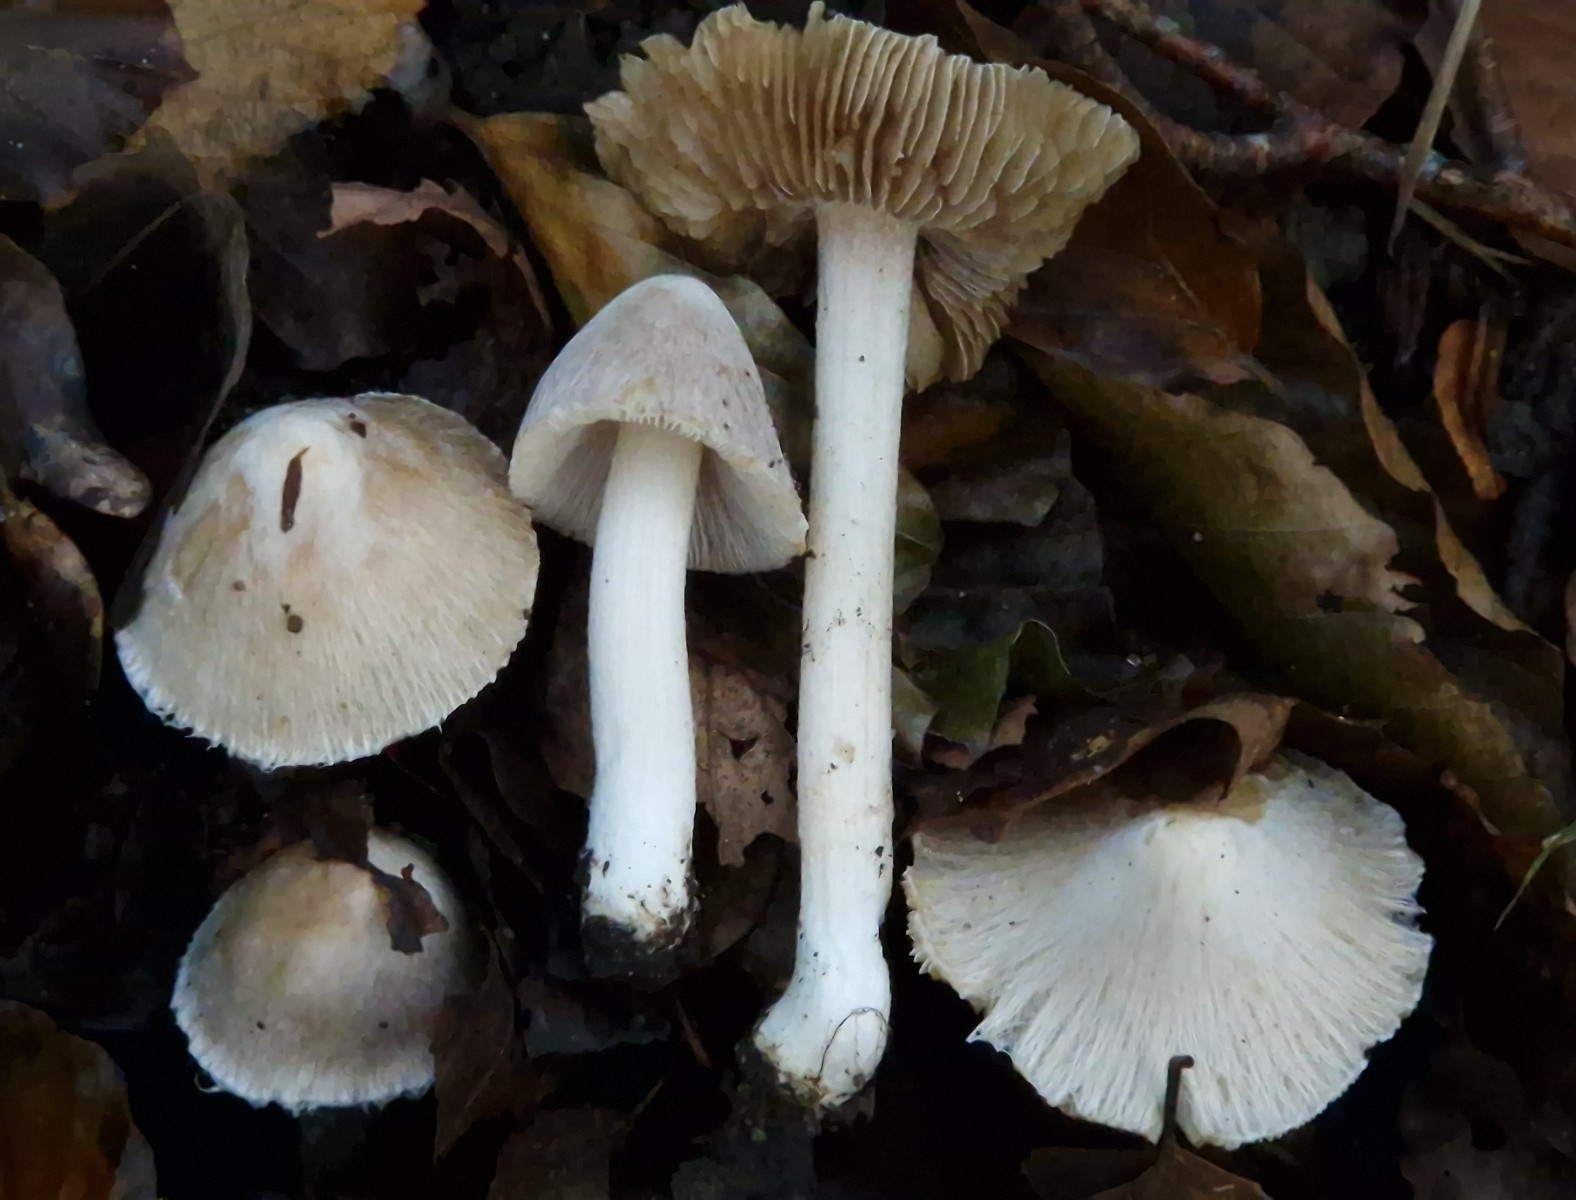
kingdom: Fungi
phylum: Basidiomycota
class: Agaricomycetes
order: Agaricales
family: Inocybaceae
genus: Pseudosperma
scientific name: Pseudosperma obsoletum
